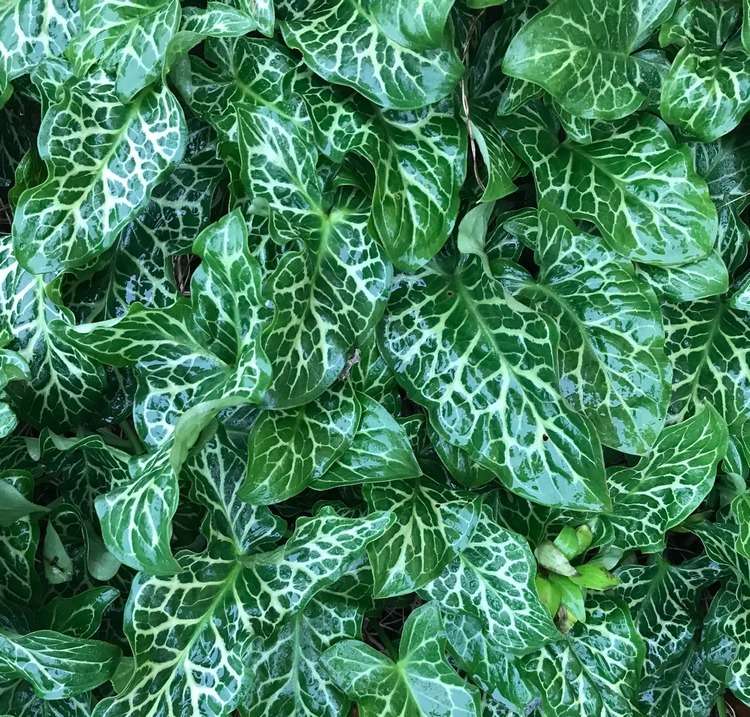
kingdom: Plantae
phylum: Tracheophyta
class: Liliopsida
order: Alismatales
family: Araceae
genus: Arum
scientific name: Arum italicum
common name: Italiensk arum
